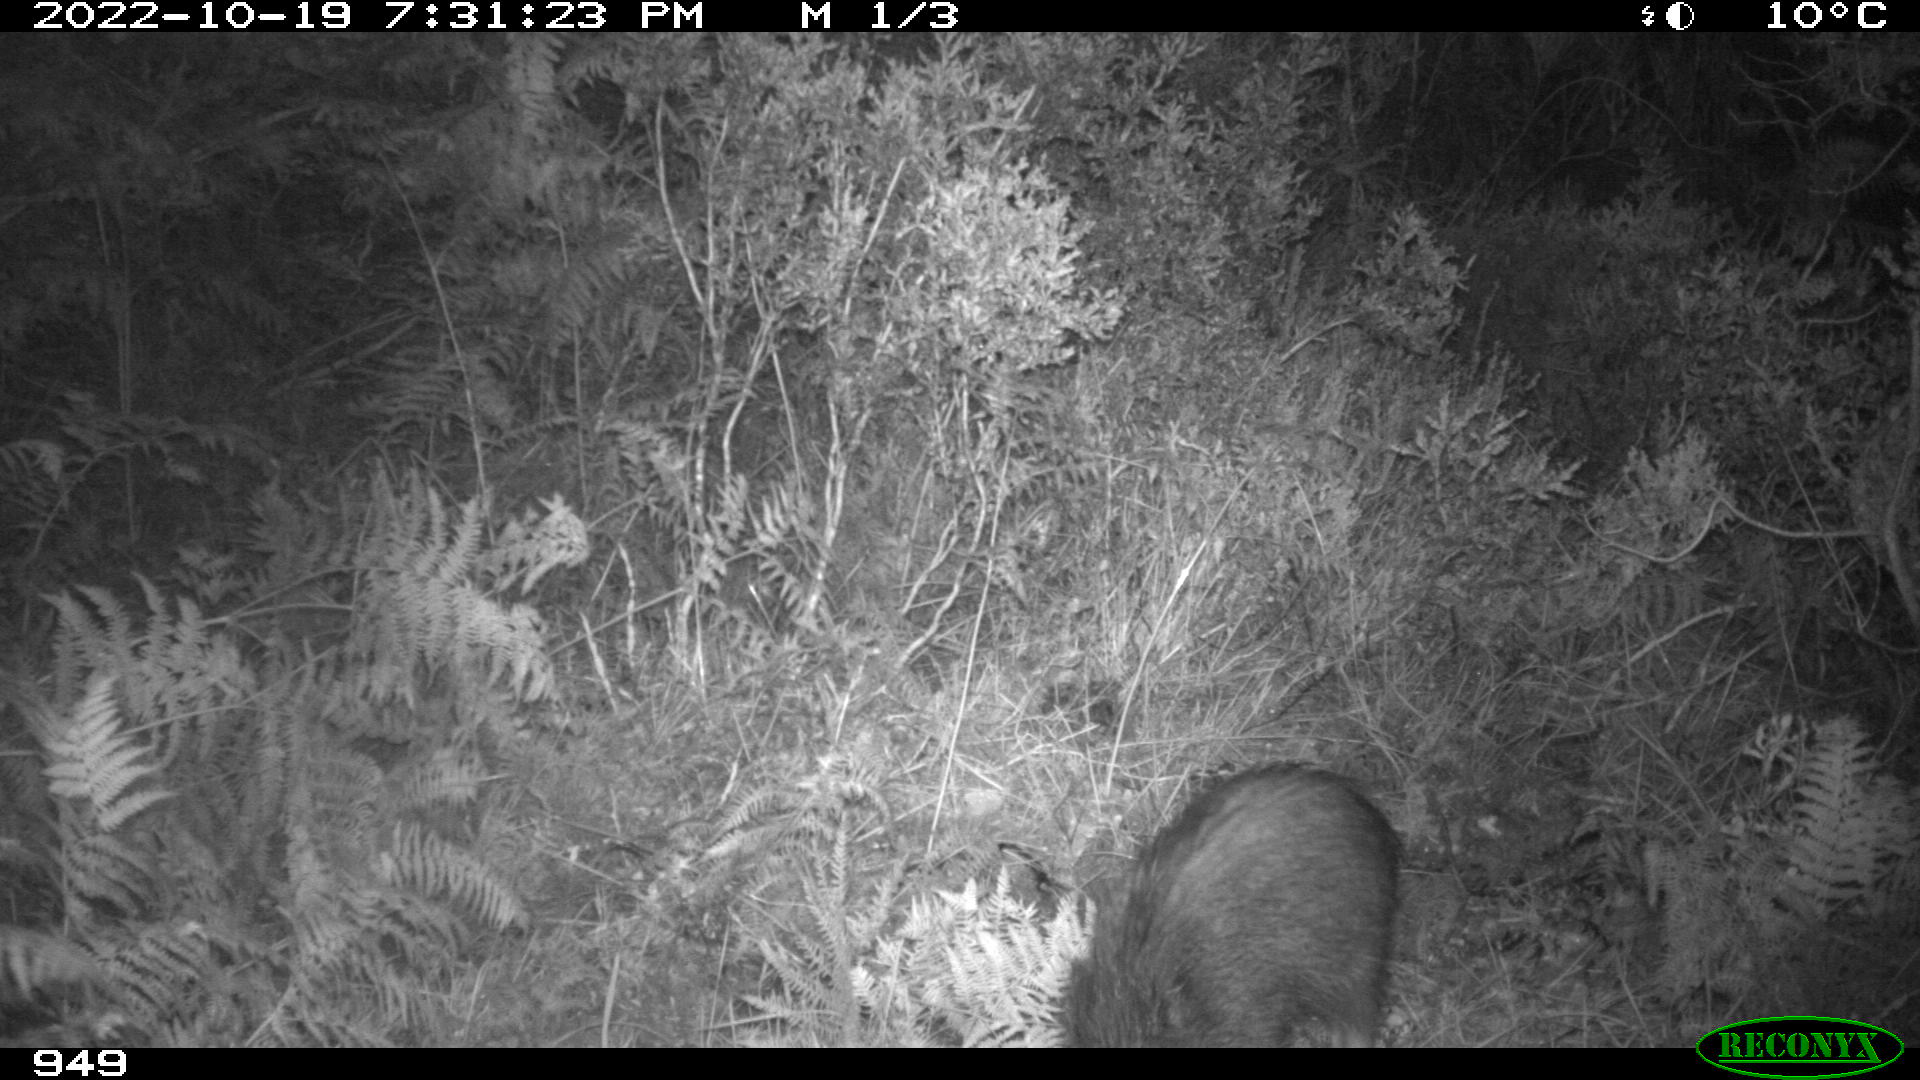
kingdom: Animalia
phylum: Chordata
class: Mammalia
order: Artiodactyla
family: Suidae
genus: Sus
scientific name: Sus scrofa
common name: Wild boar
